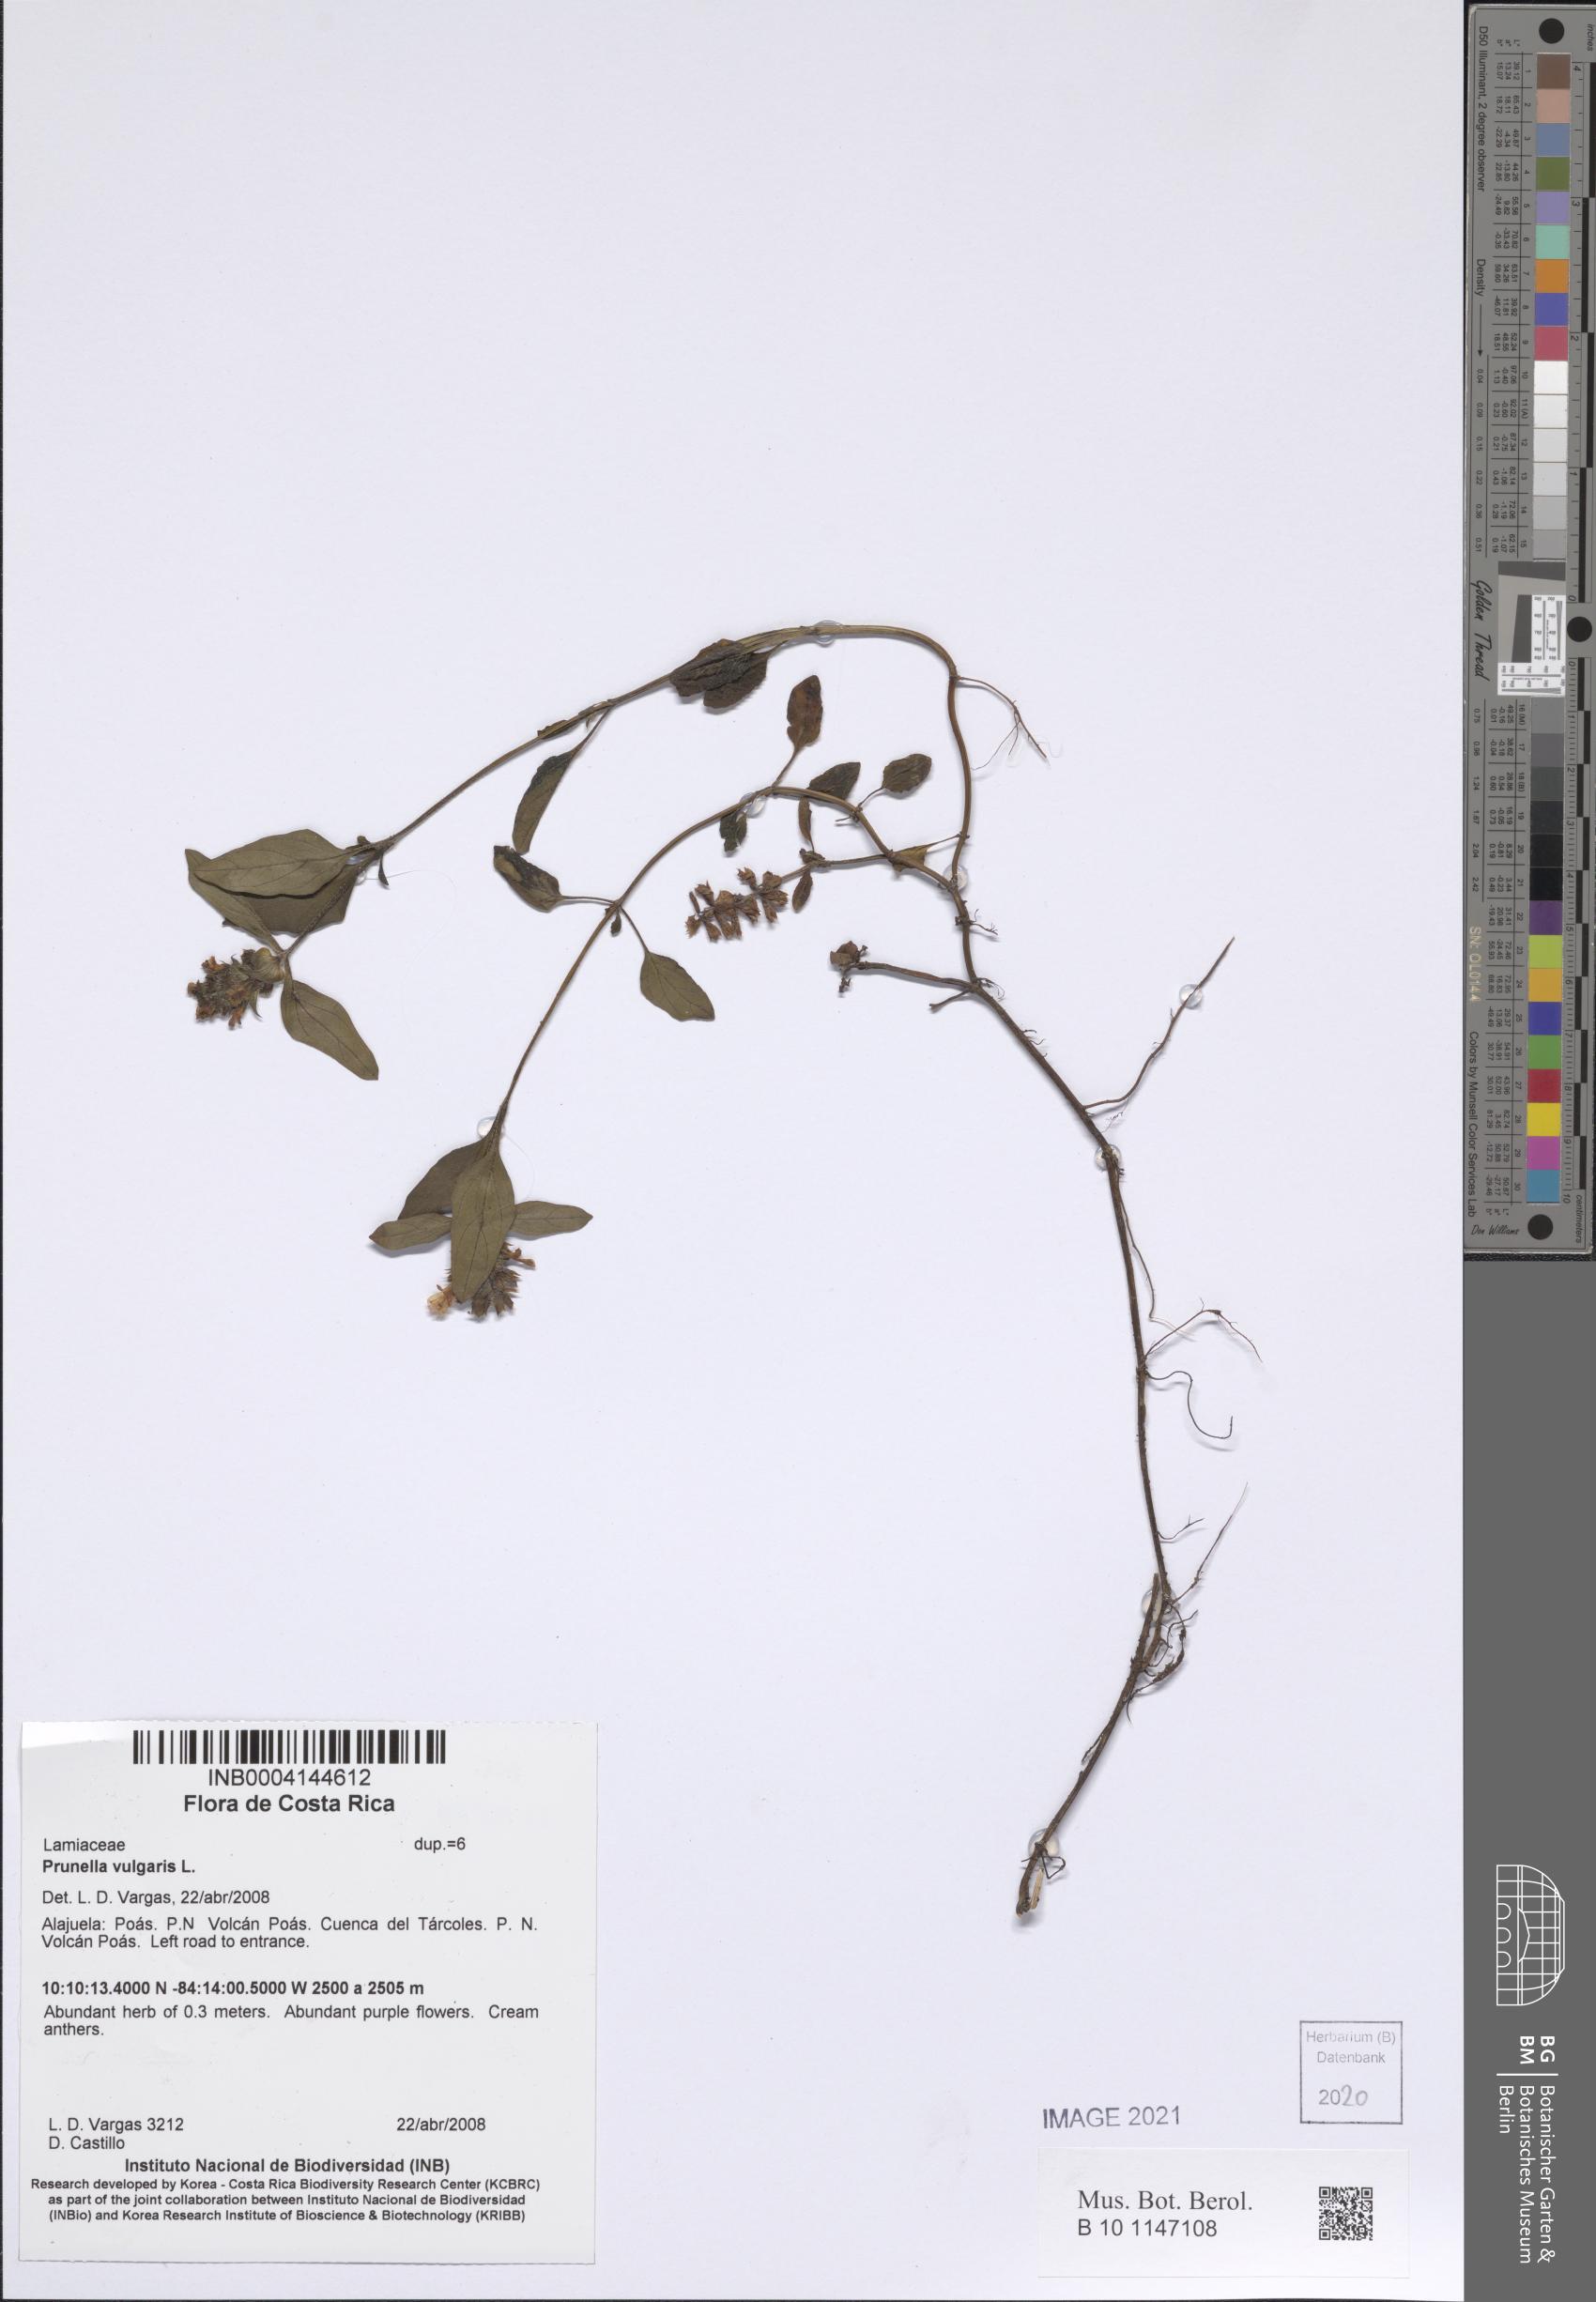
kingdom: Plantae
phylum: Tracheophyta
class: Magnoliopsida
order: Lamiales
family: Lamiaceae
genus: Prunella
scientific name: Prunella vulgaris
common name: Heal-all
